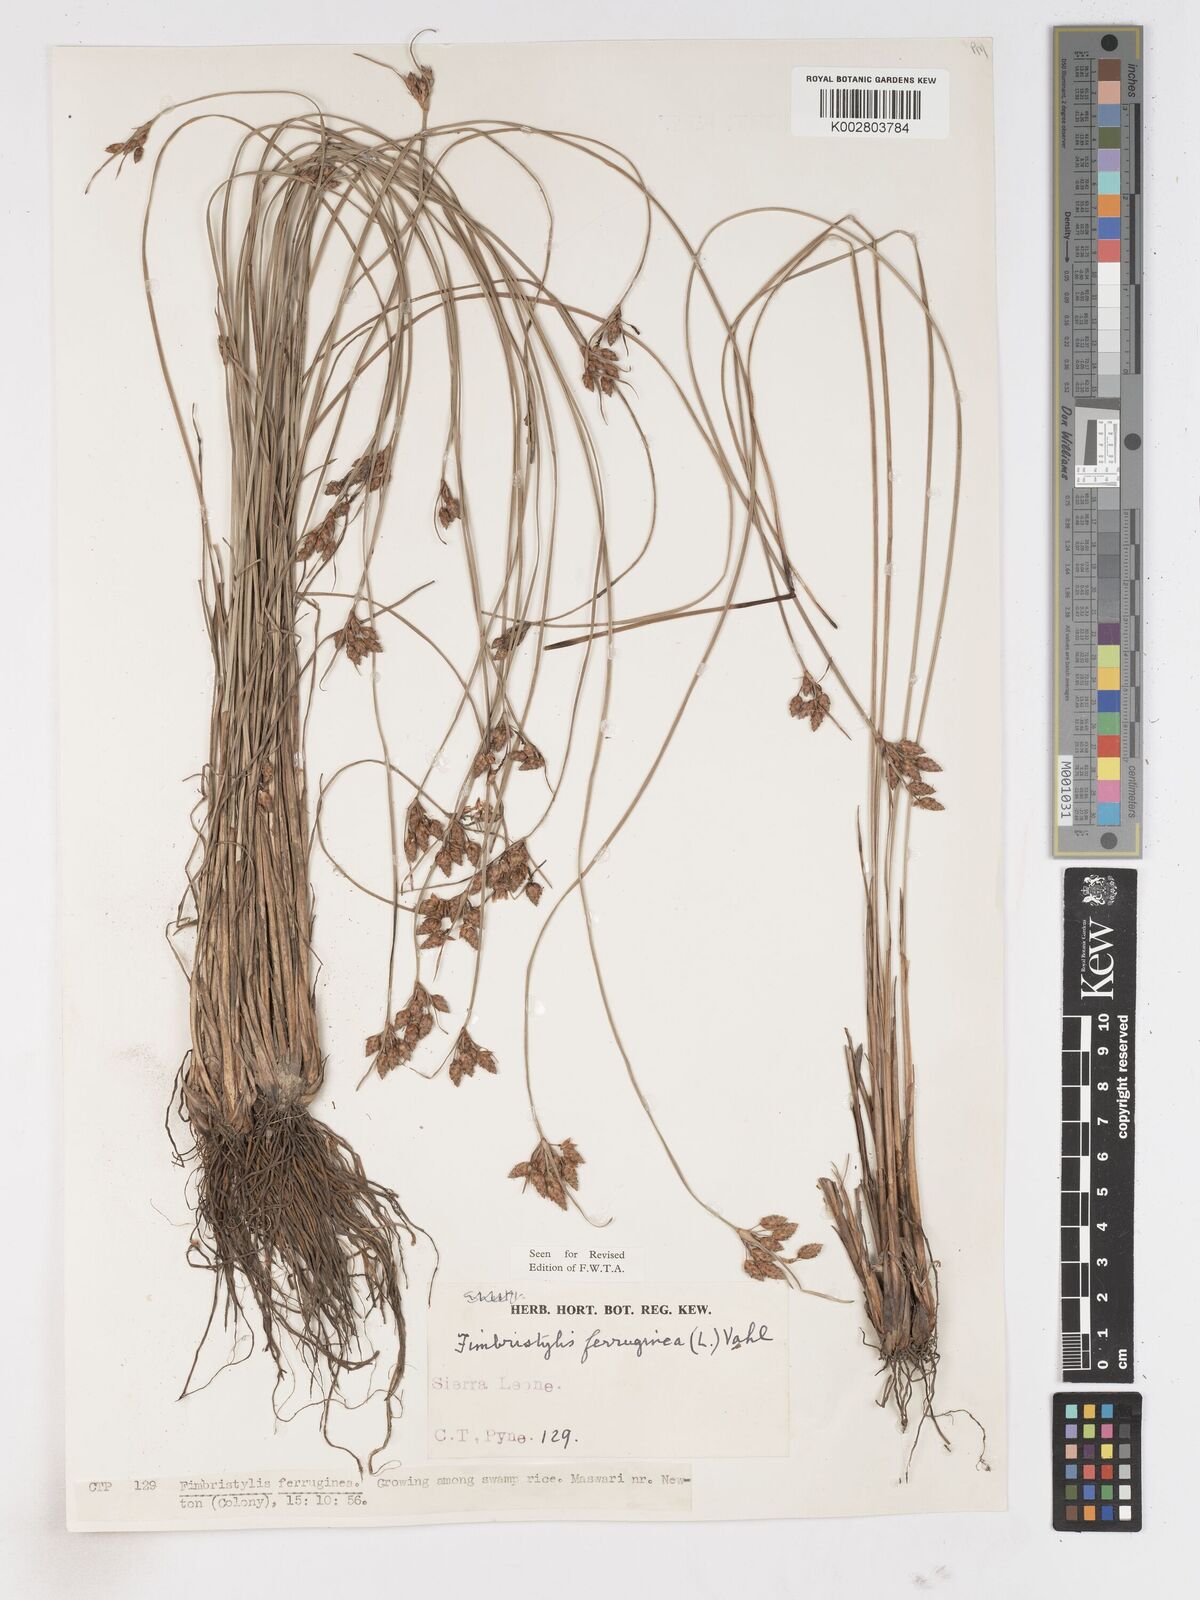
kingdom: Plantae
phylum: Tracheophyta
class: Liliopsida
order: Poales
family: Cyperaceae
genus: Fimbristylis
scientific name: Fimbristylis ferruginea
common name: West indian fimbry
